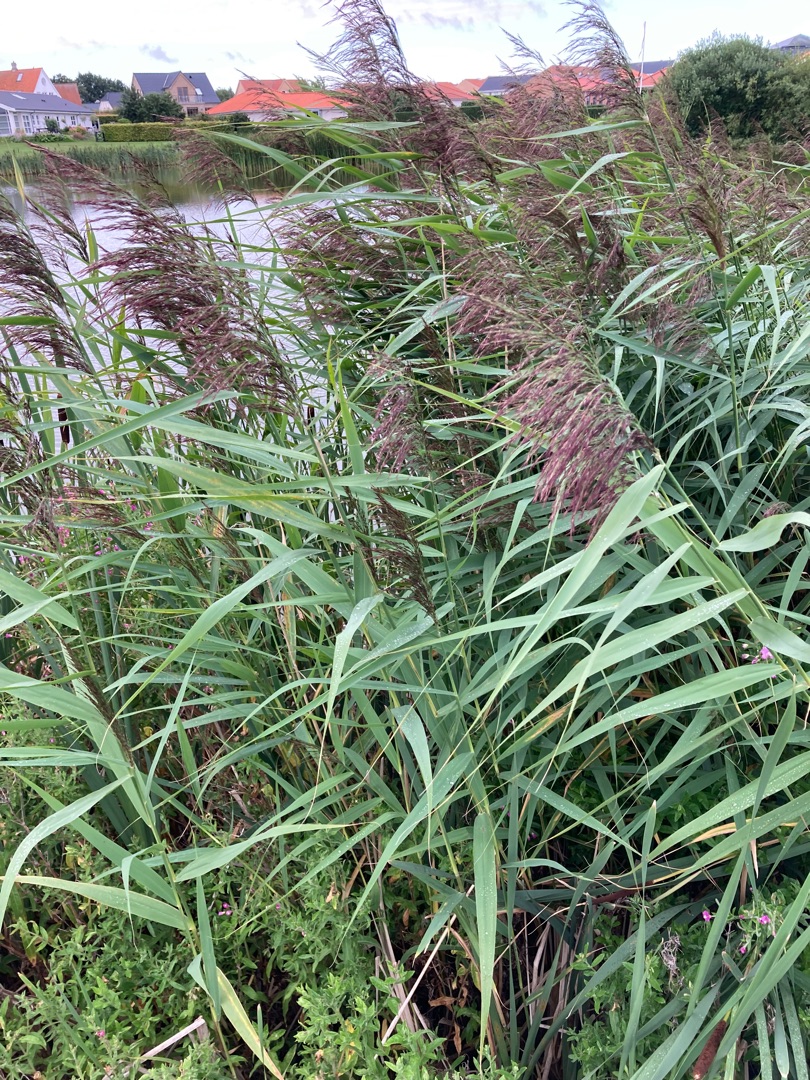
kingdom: Plantae
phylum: Tracheophyta
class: Liliopsida
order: Poales
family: Poaceae
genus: Phragmites
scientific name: Phragmites australis
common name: Tagrør
